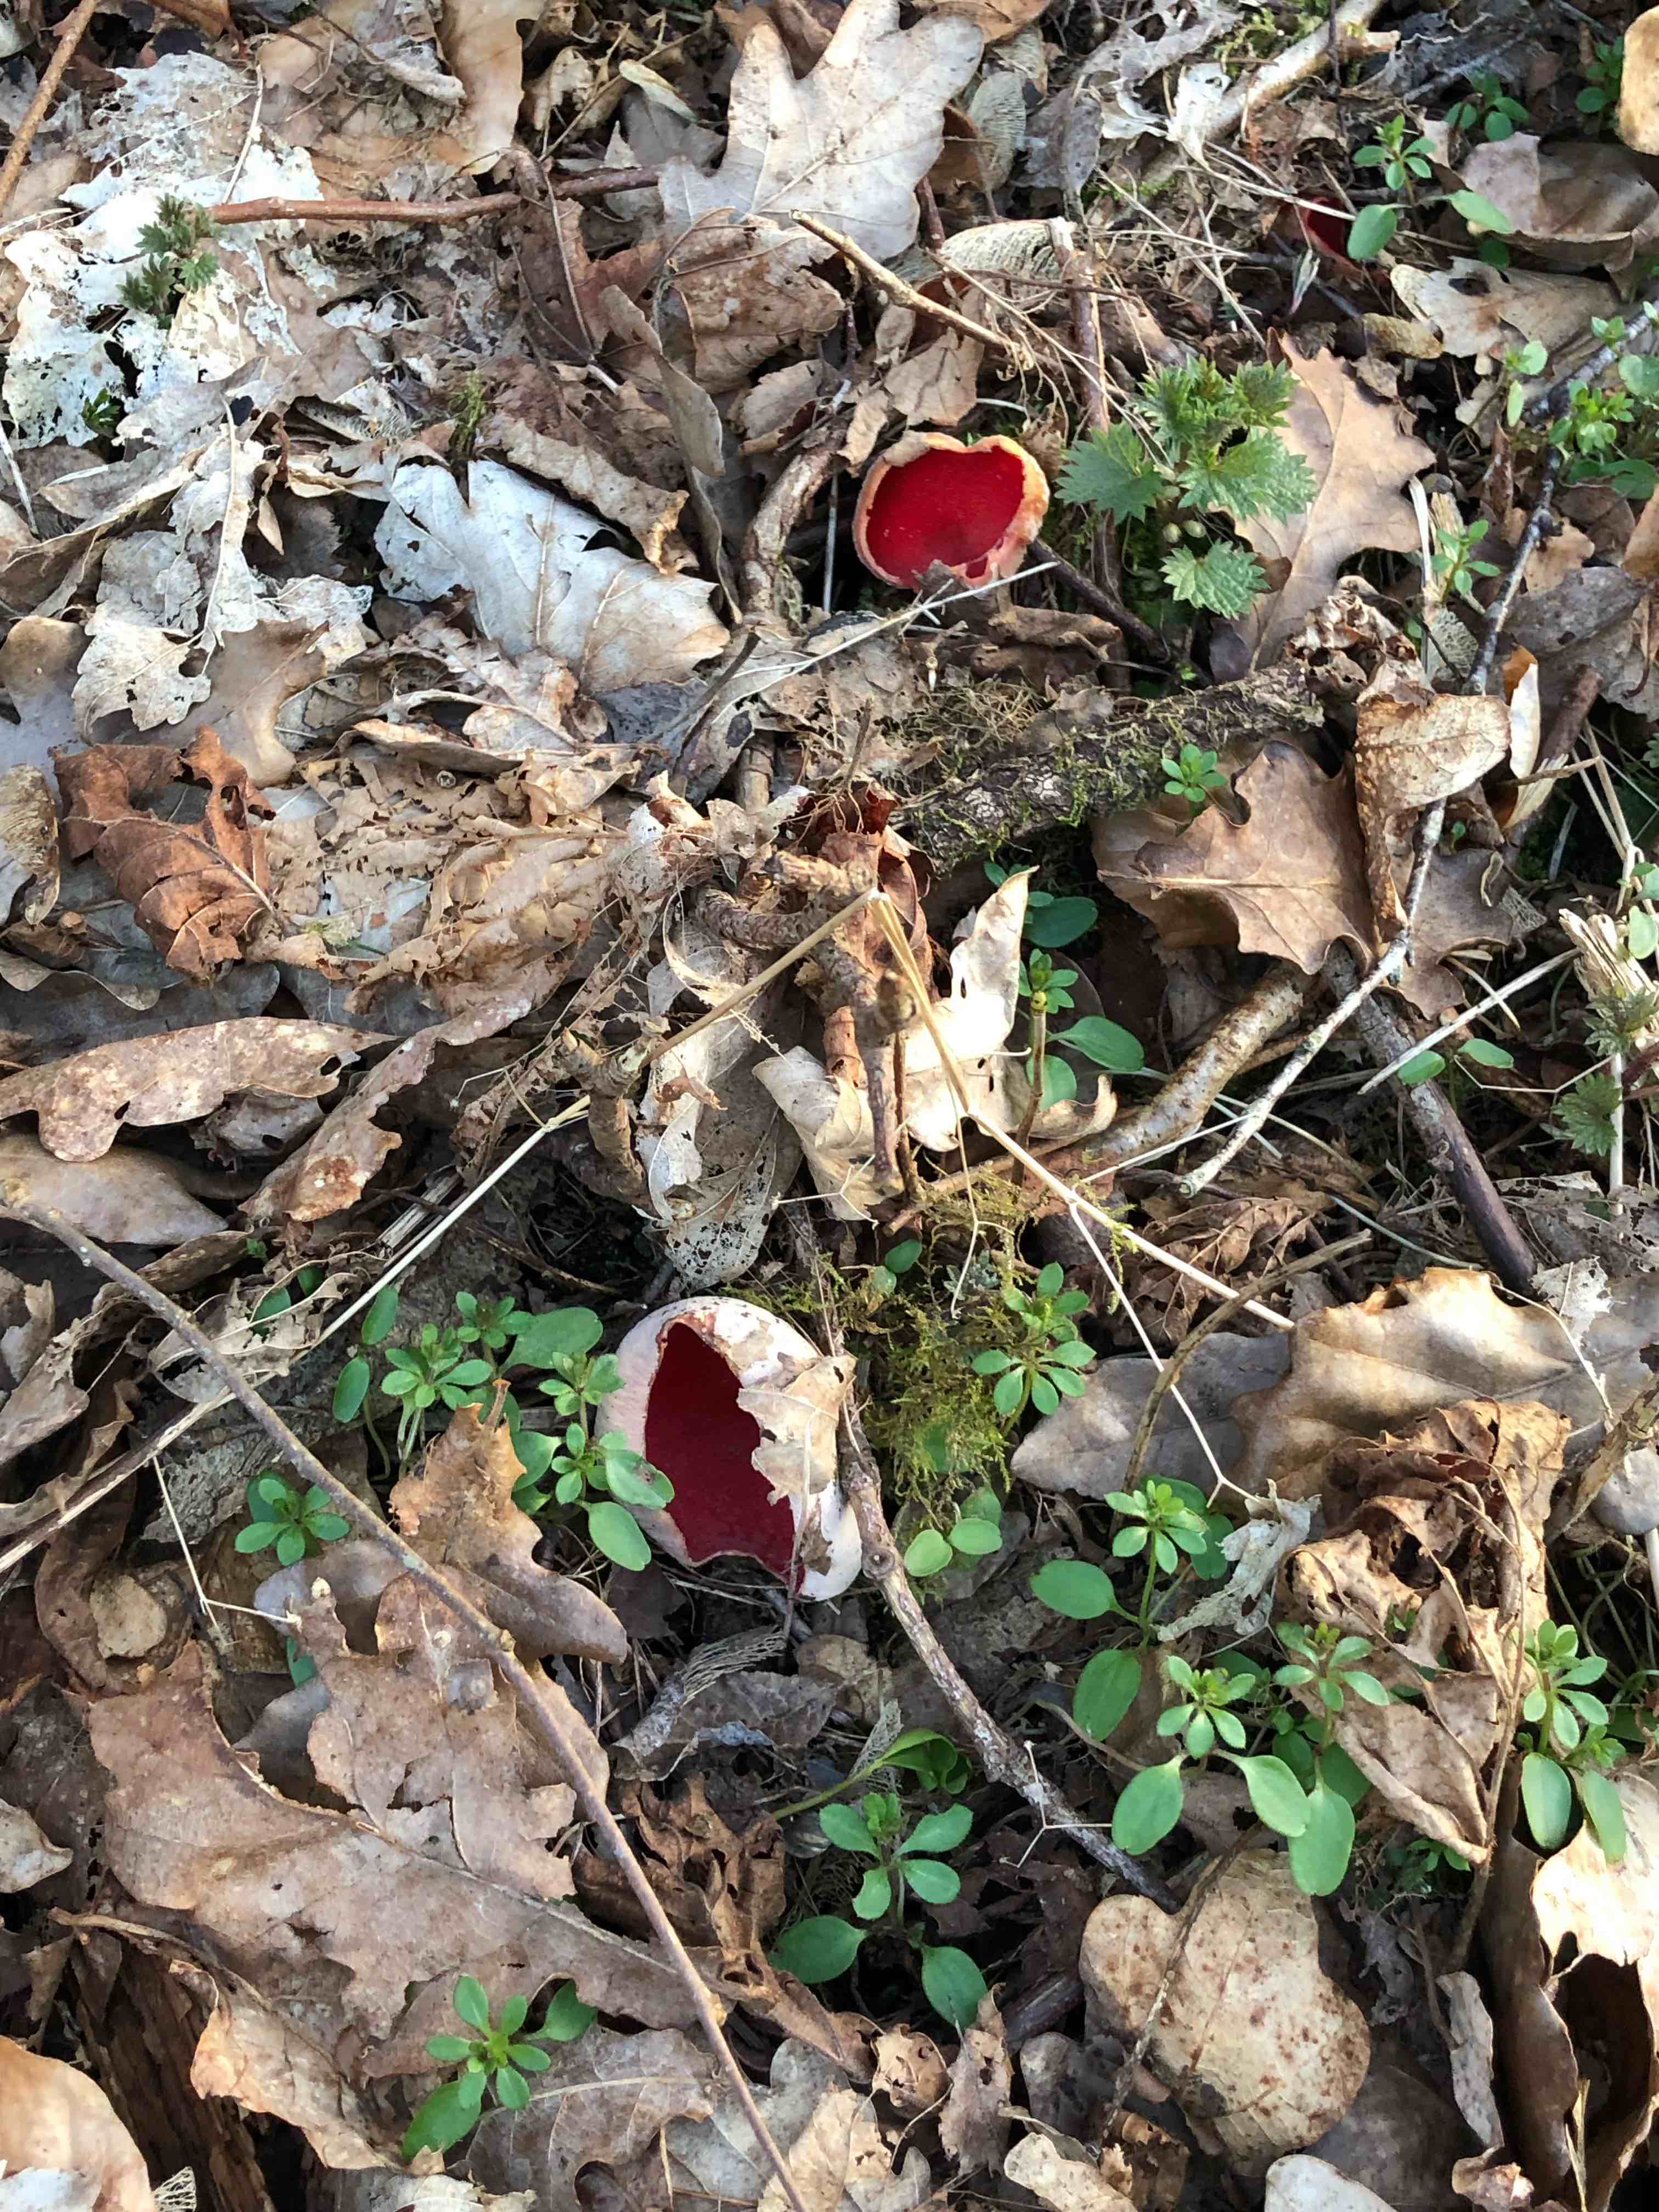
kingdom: Fungi
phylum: Ascomycota
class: Pezizomycetes
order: Pezizales
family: Sarcoscyphaceae
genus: Sarcoscypha
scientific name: Sarcoscypha austriaca
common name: krølhåret pragtbæger
